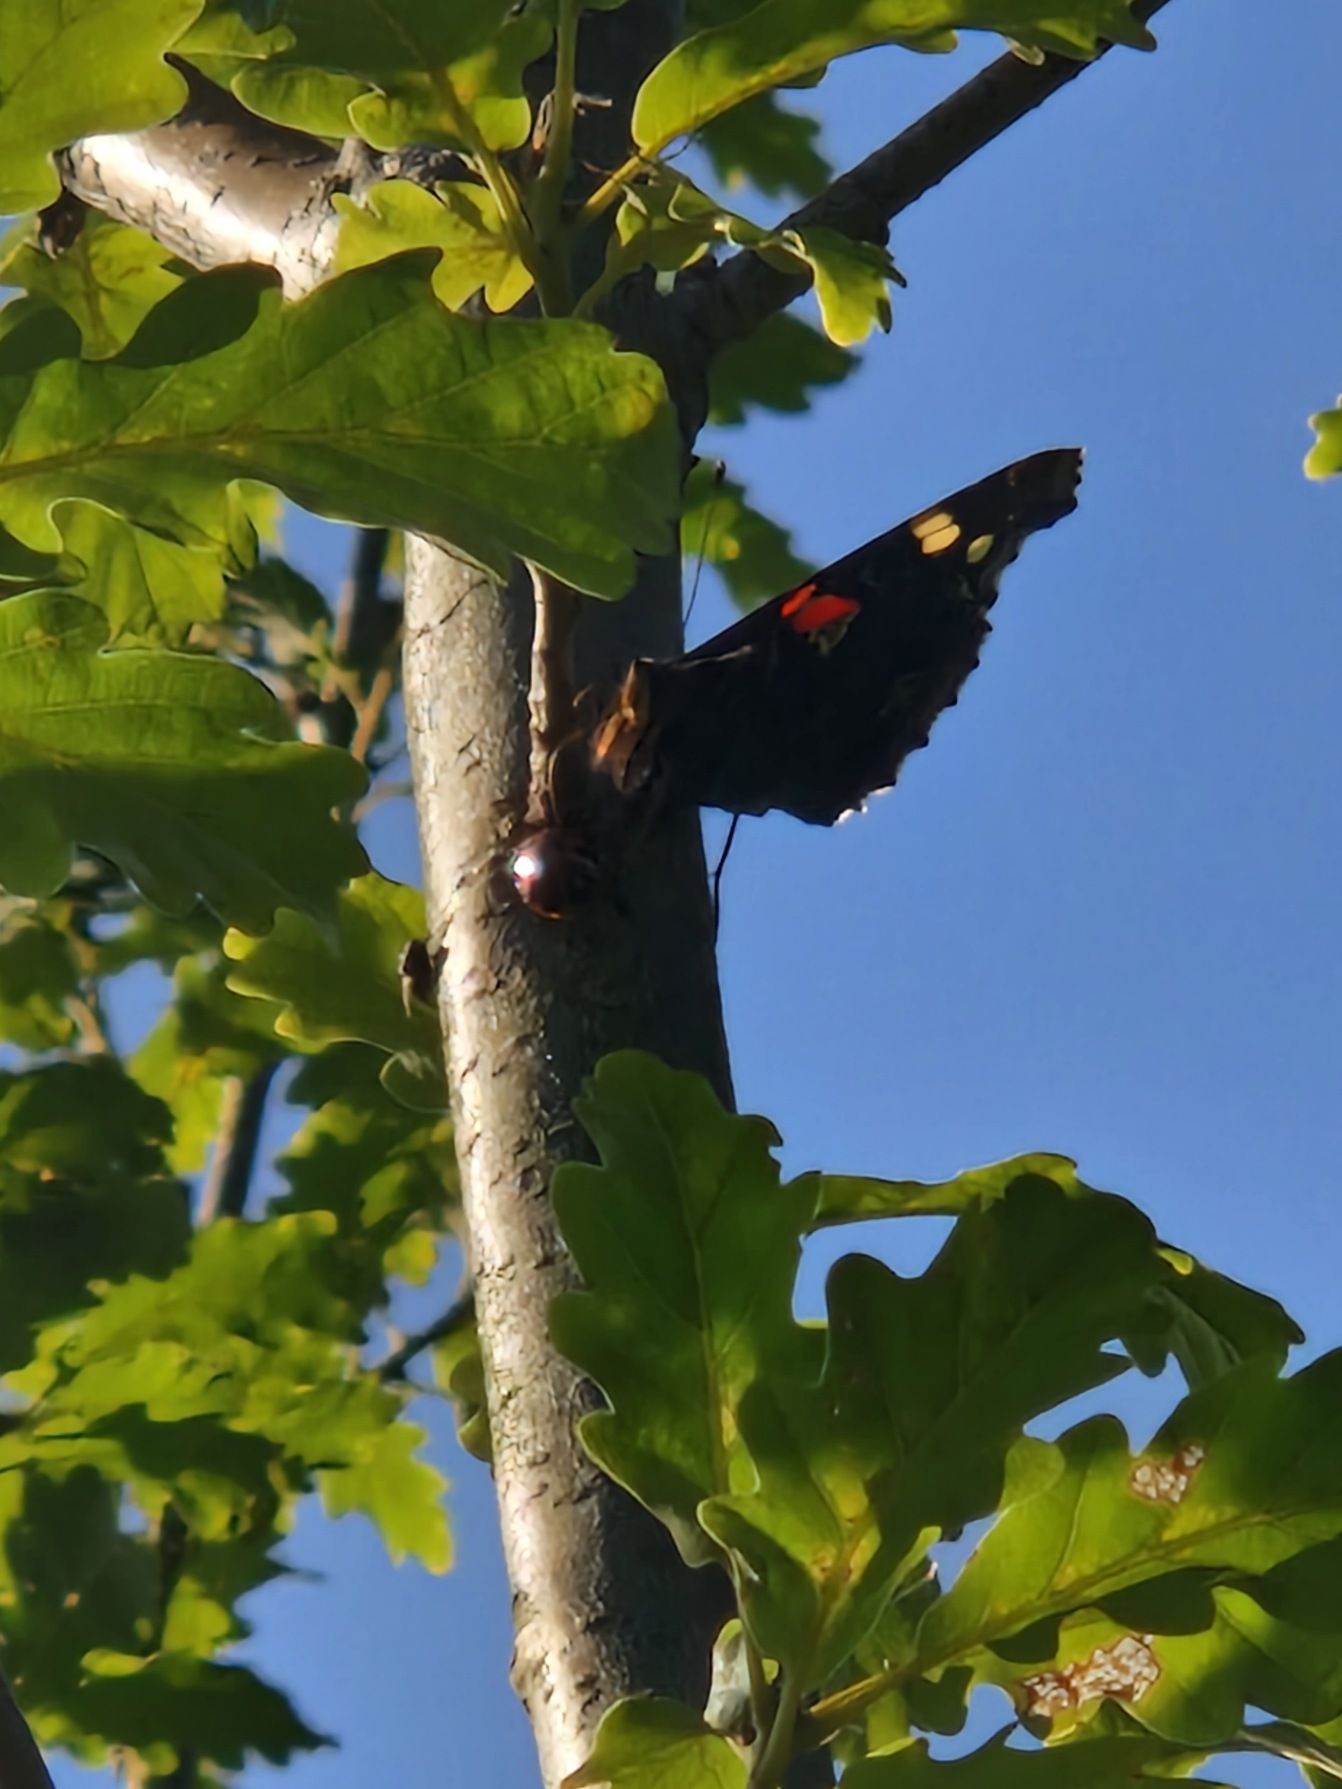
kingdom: Animalia
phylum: Arthropoda
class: Insecta
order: Lepidoptera
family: Nymphalidae
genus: Vanessa
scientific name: Vanessa atalanta
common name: Admiral
